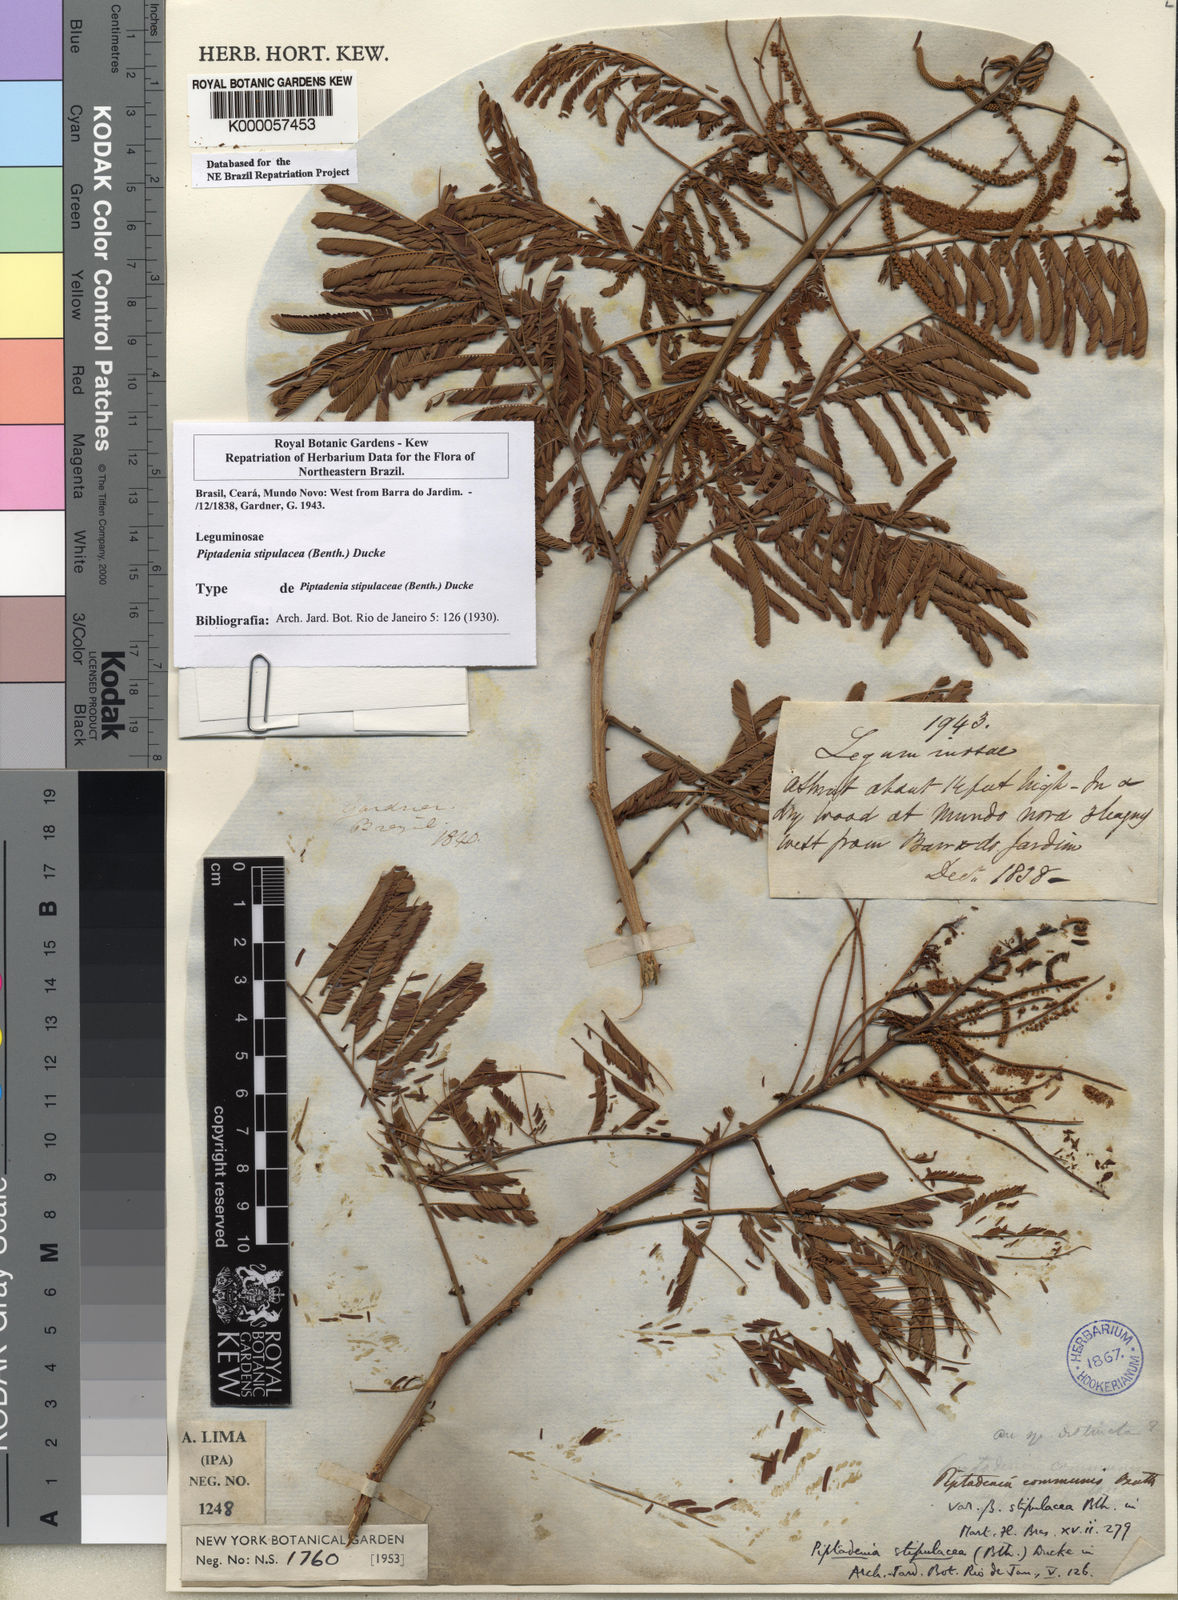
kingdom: Plantae
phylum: Tracheophyta
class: Magnoliopsida
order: Fabales
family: Fabaceae
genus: Piptadenia
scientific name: Piptadenia retusa
